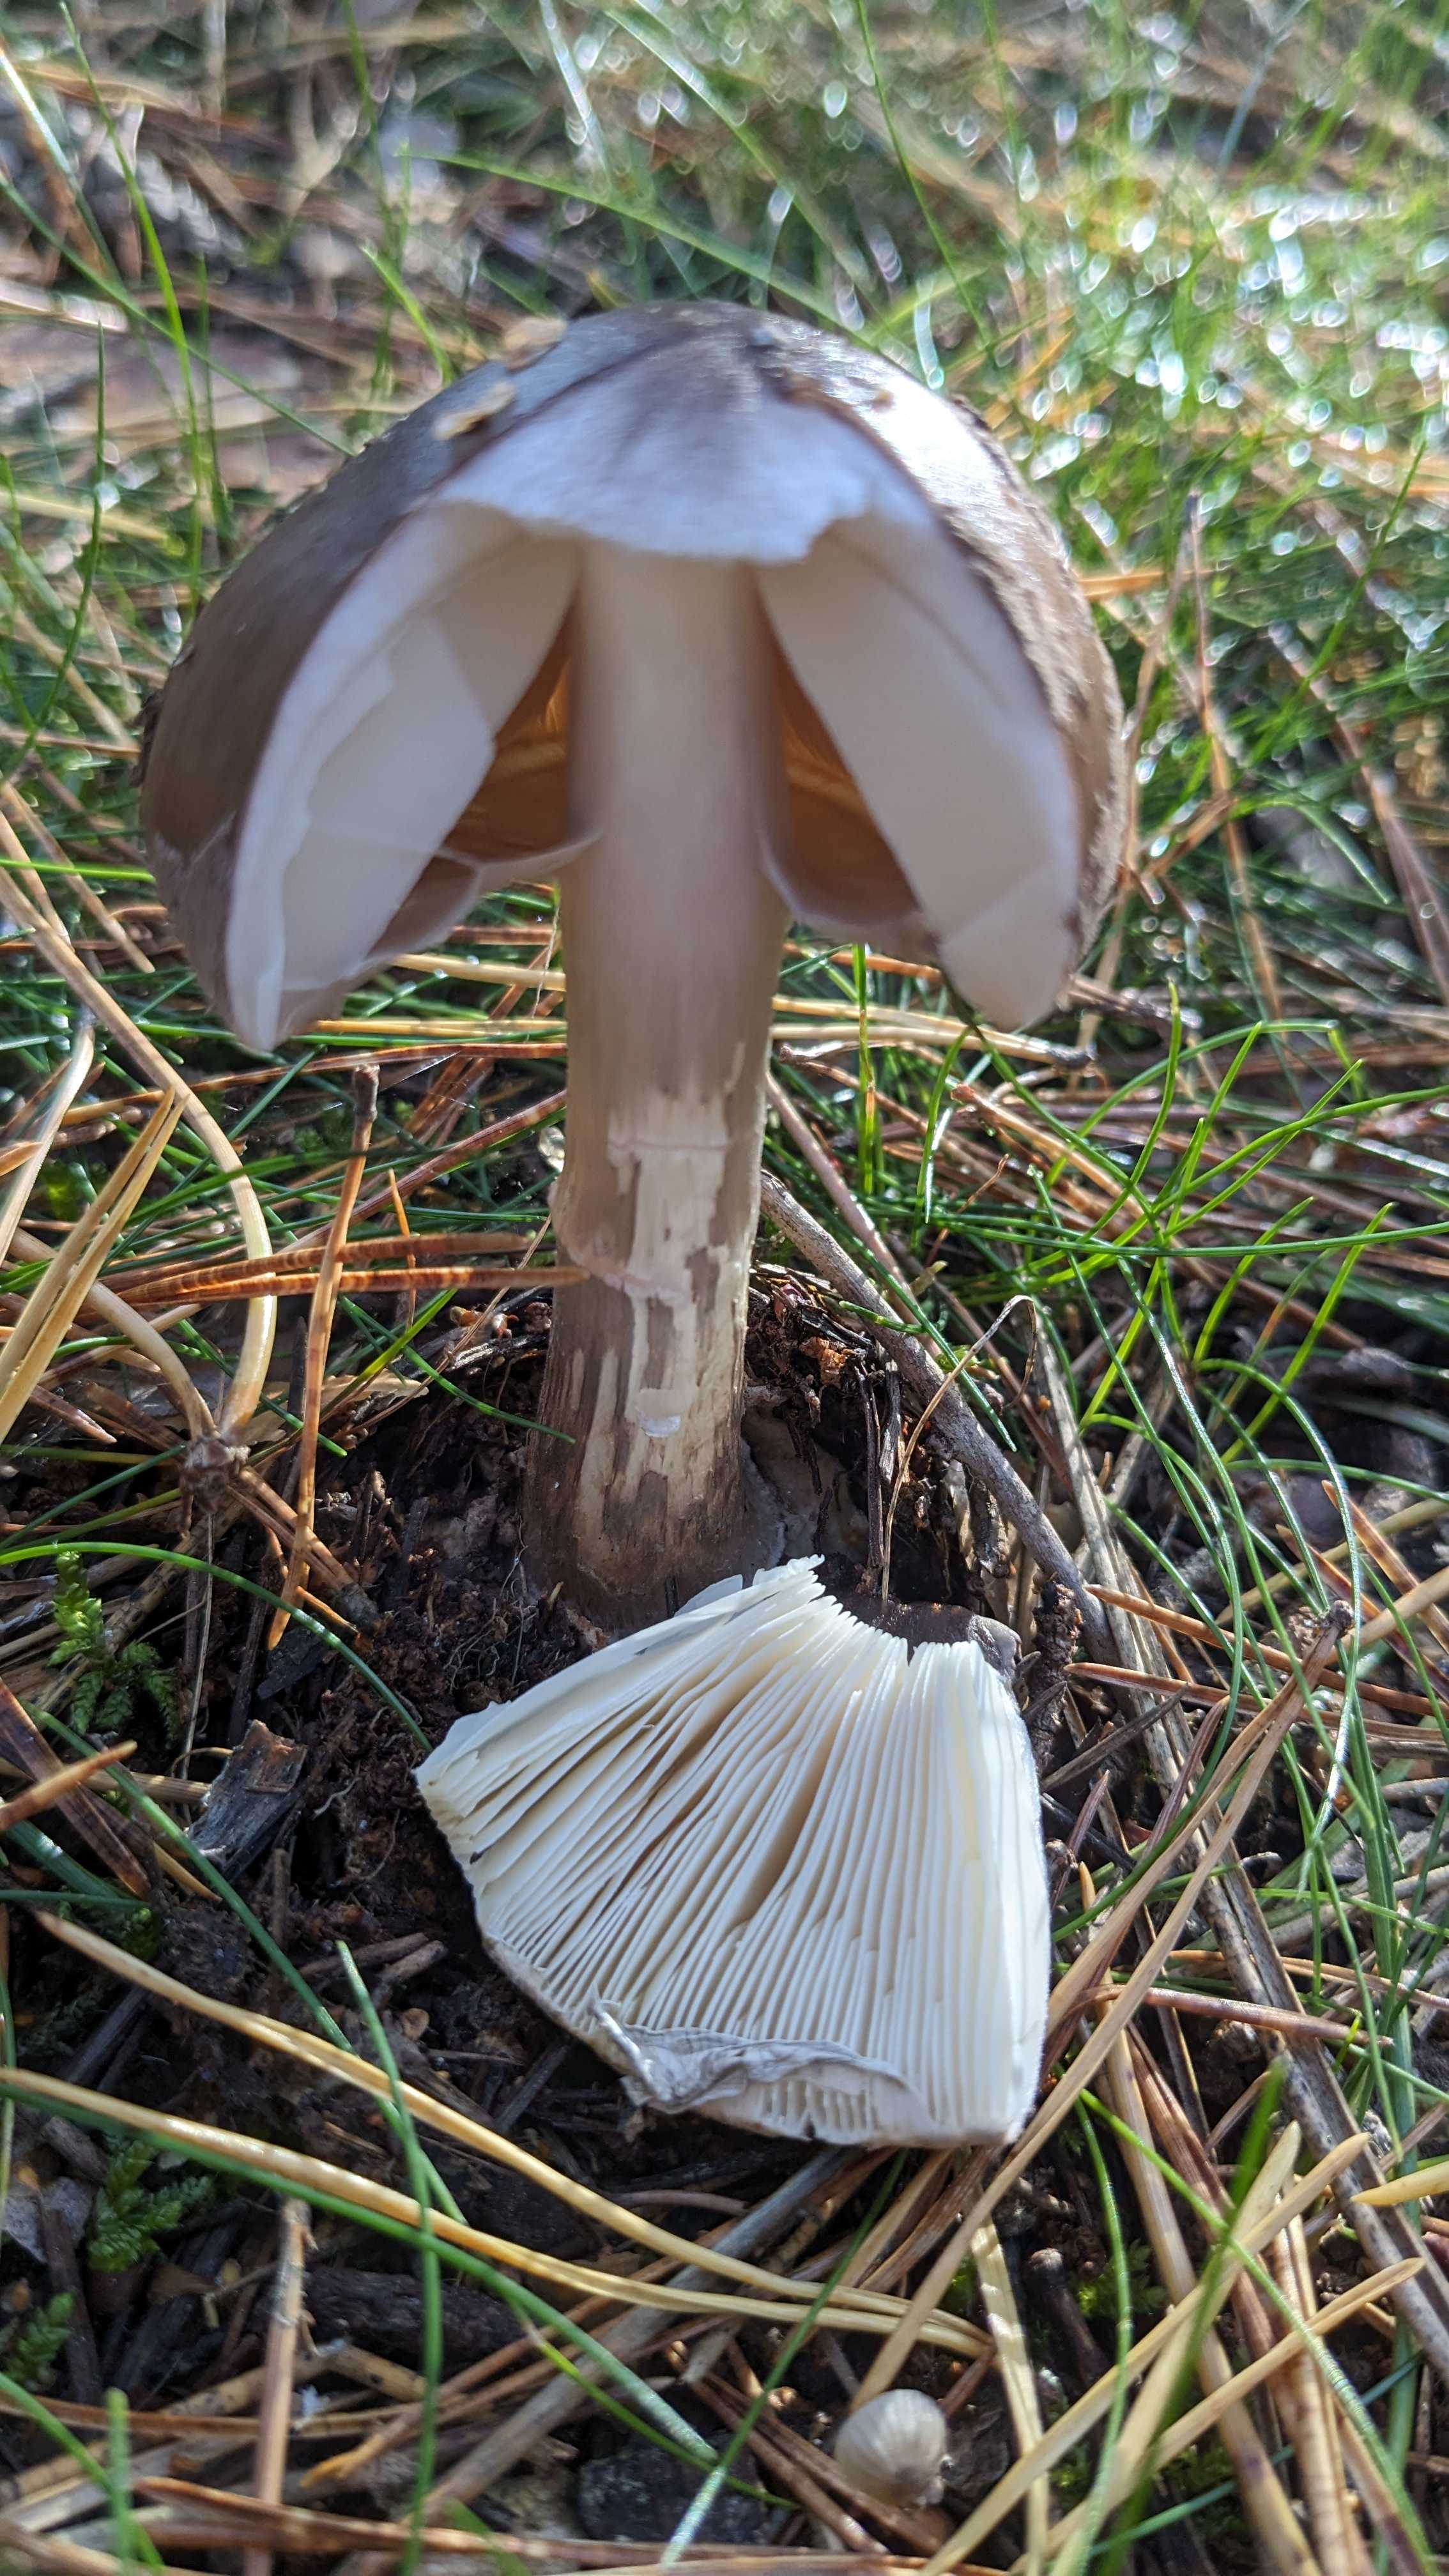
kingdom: Fungi
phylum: Basidiomycota
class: Agaricomycetes
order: Agaricales
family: Amanitaceae
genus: Amanita
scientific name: Amanita
